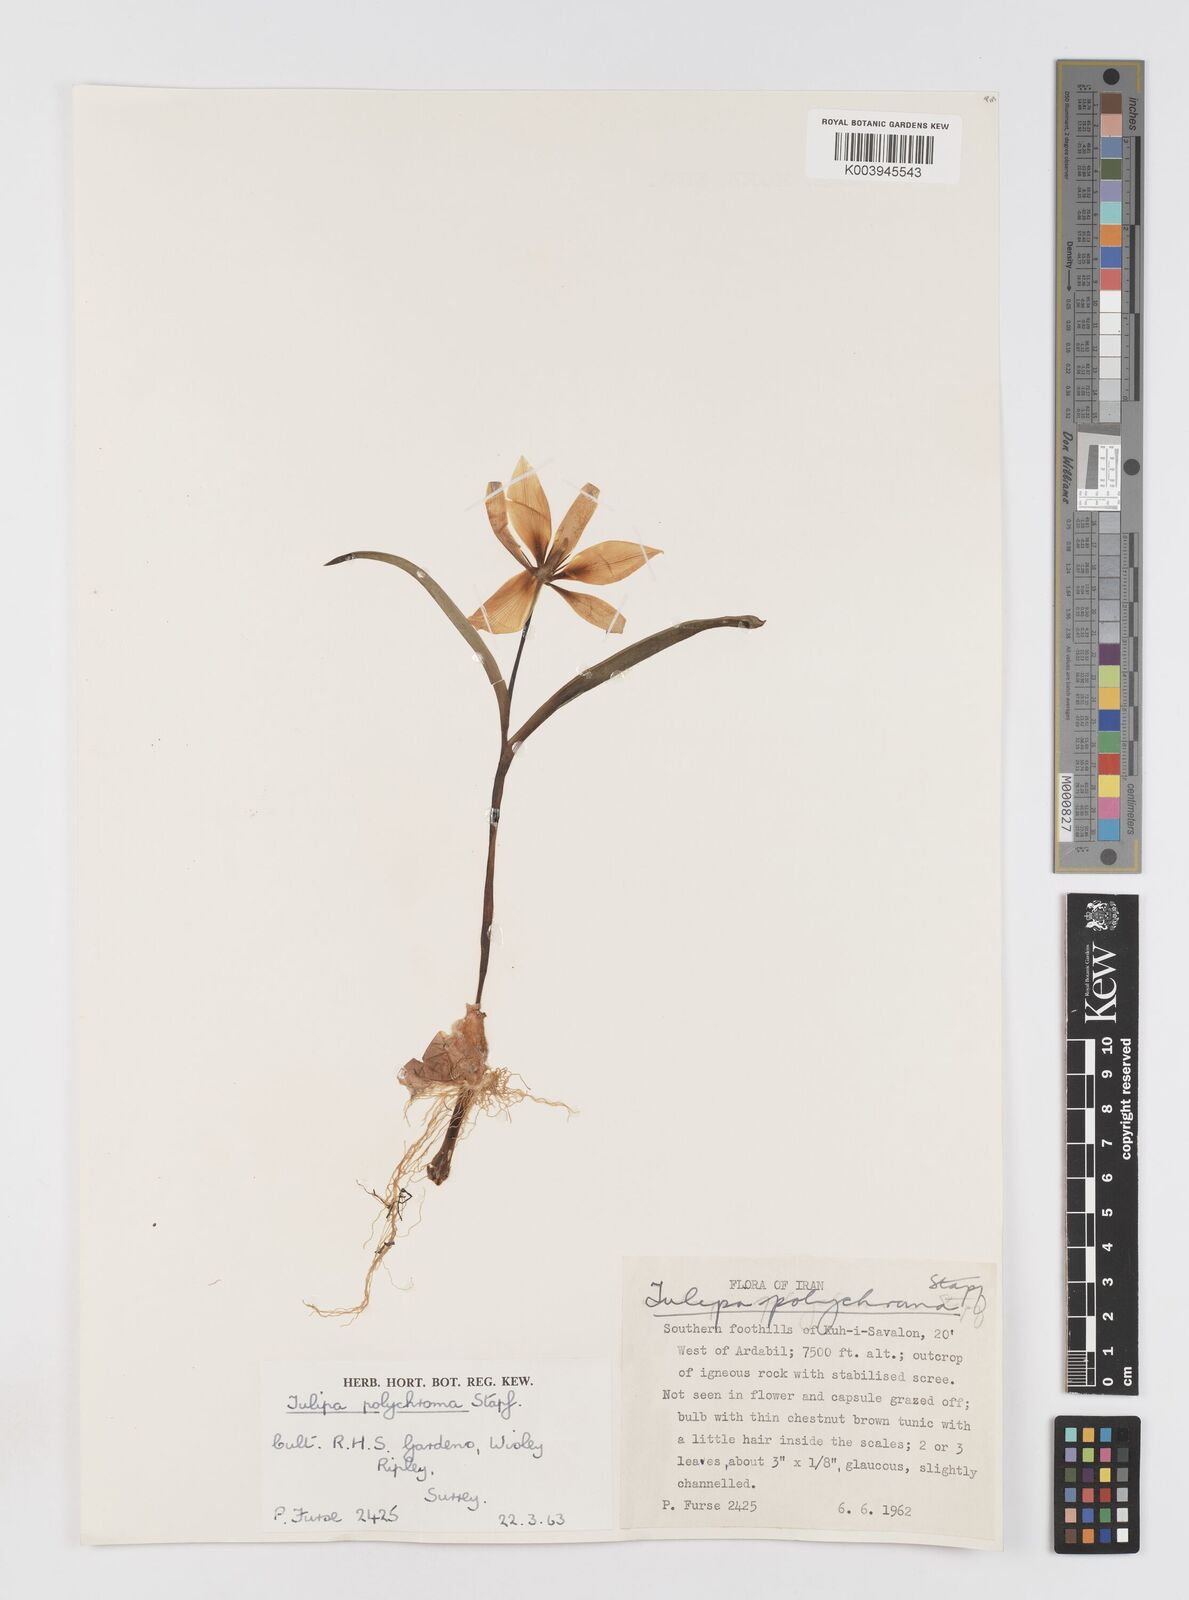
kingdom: Plantae
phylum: Tracheophyta
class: Liliopsida
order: Liliales
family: Liliaceae
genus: Tulipa
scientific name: Tulipa biflora
